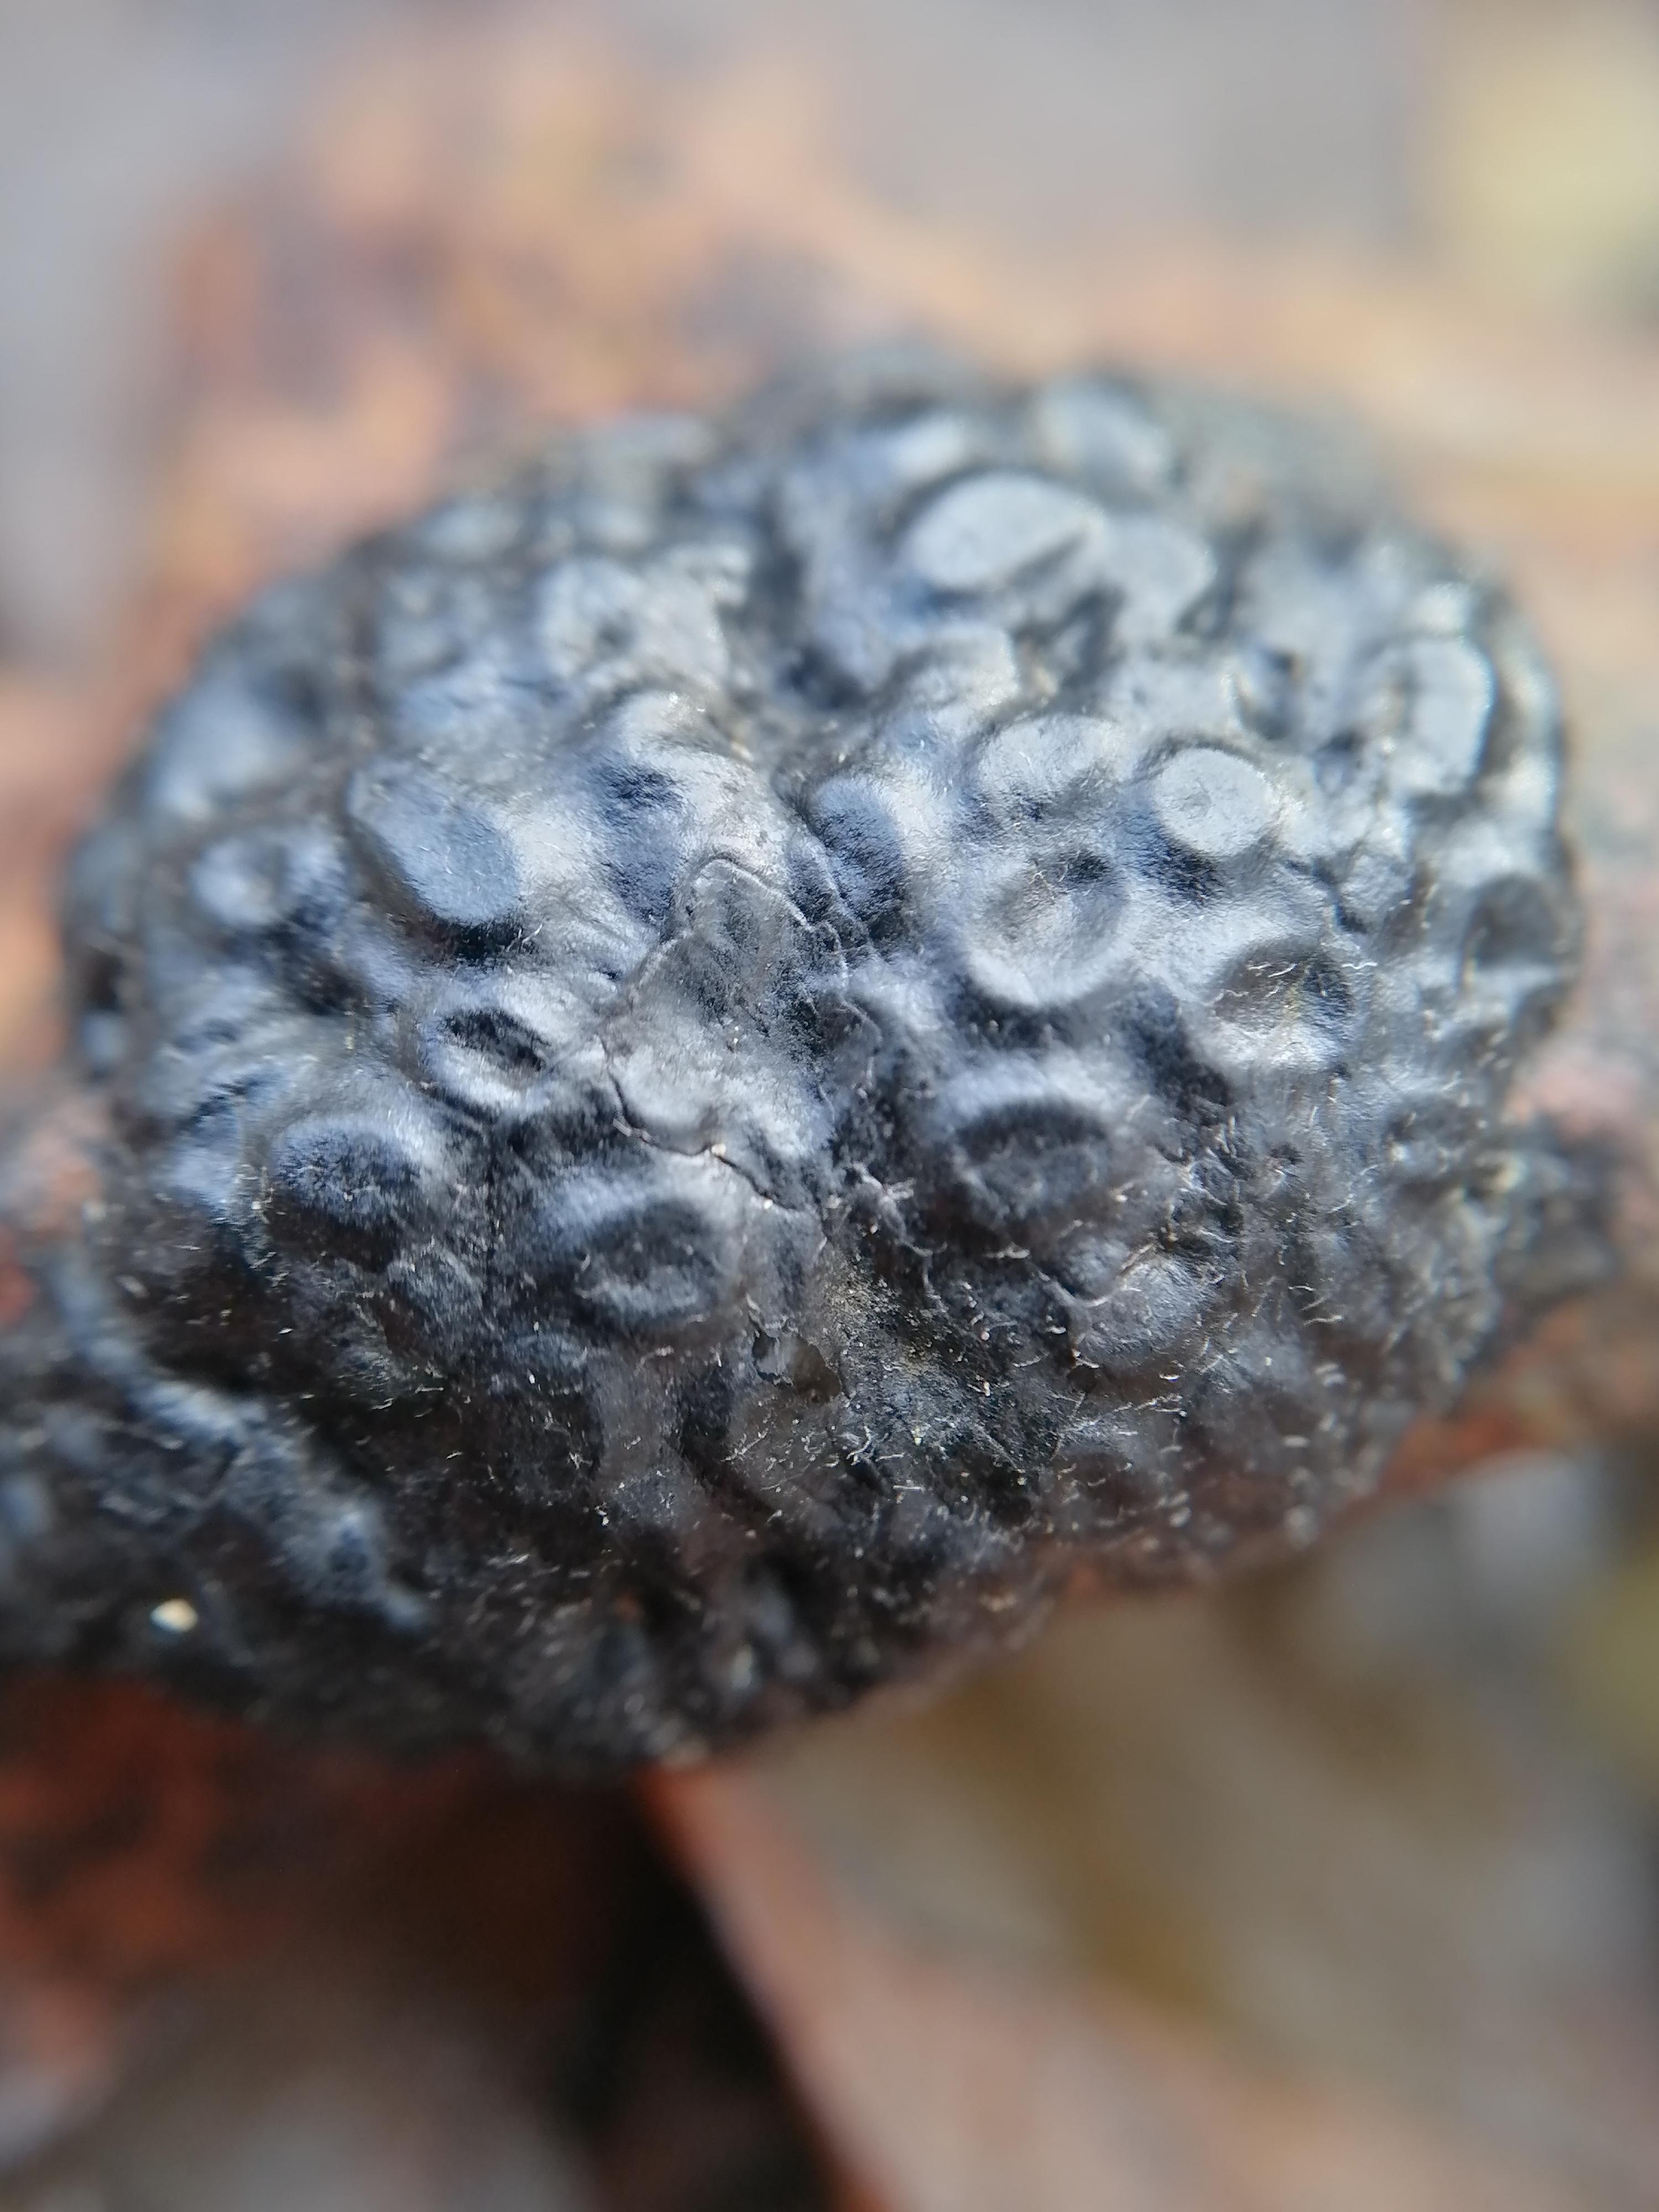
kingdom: Fungi
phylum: Ascomycota
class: Leotiomycetes
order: Rhytismatales
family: Rhytismataceae
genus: Rhytisma
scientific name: Rhytisma salicinum
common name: pile-rynkeplet
